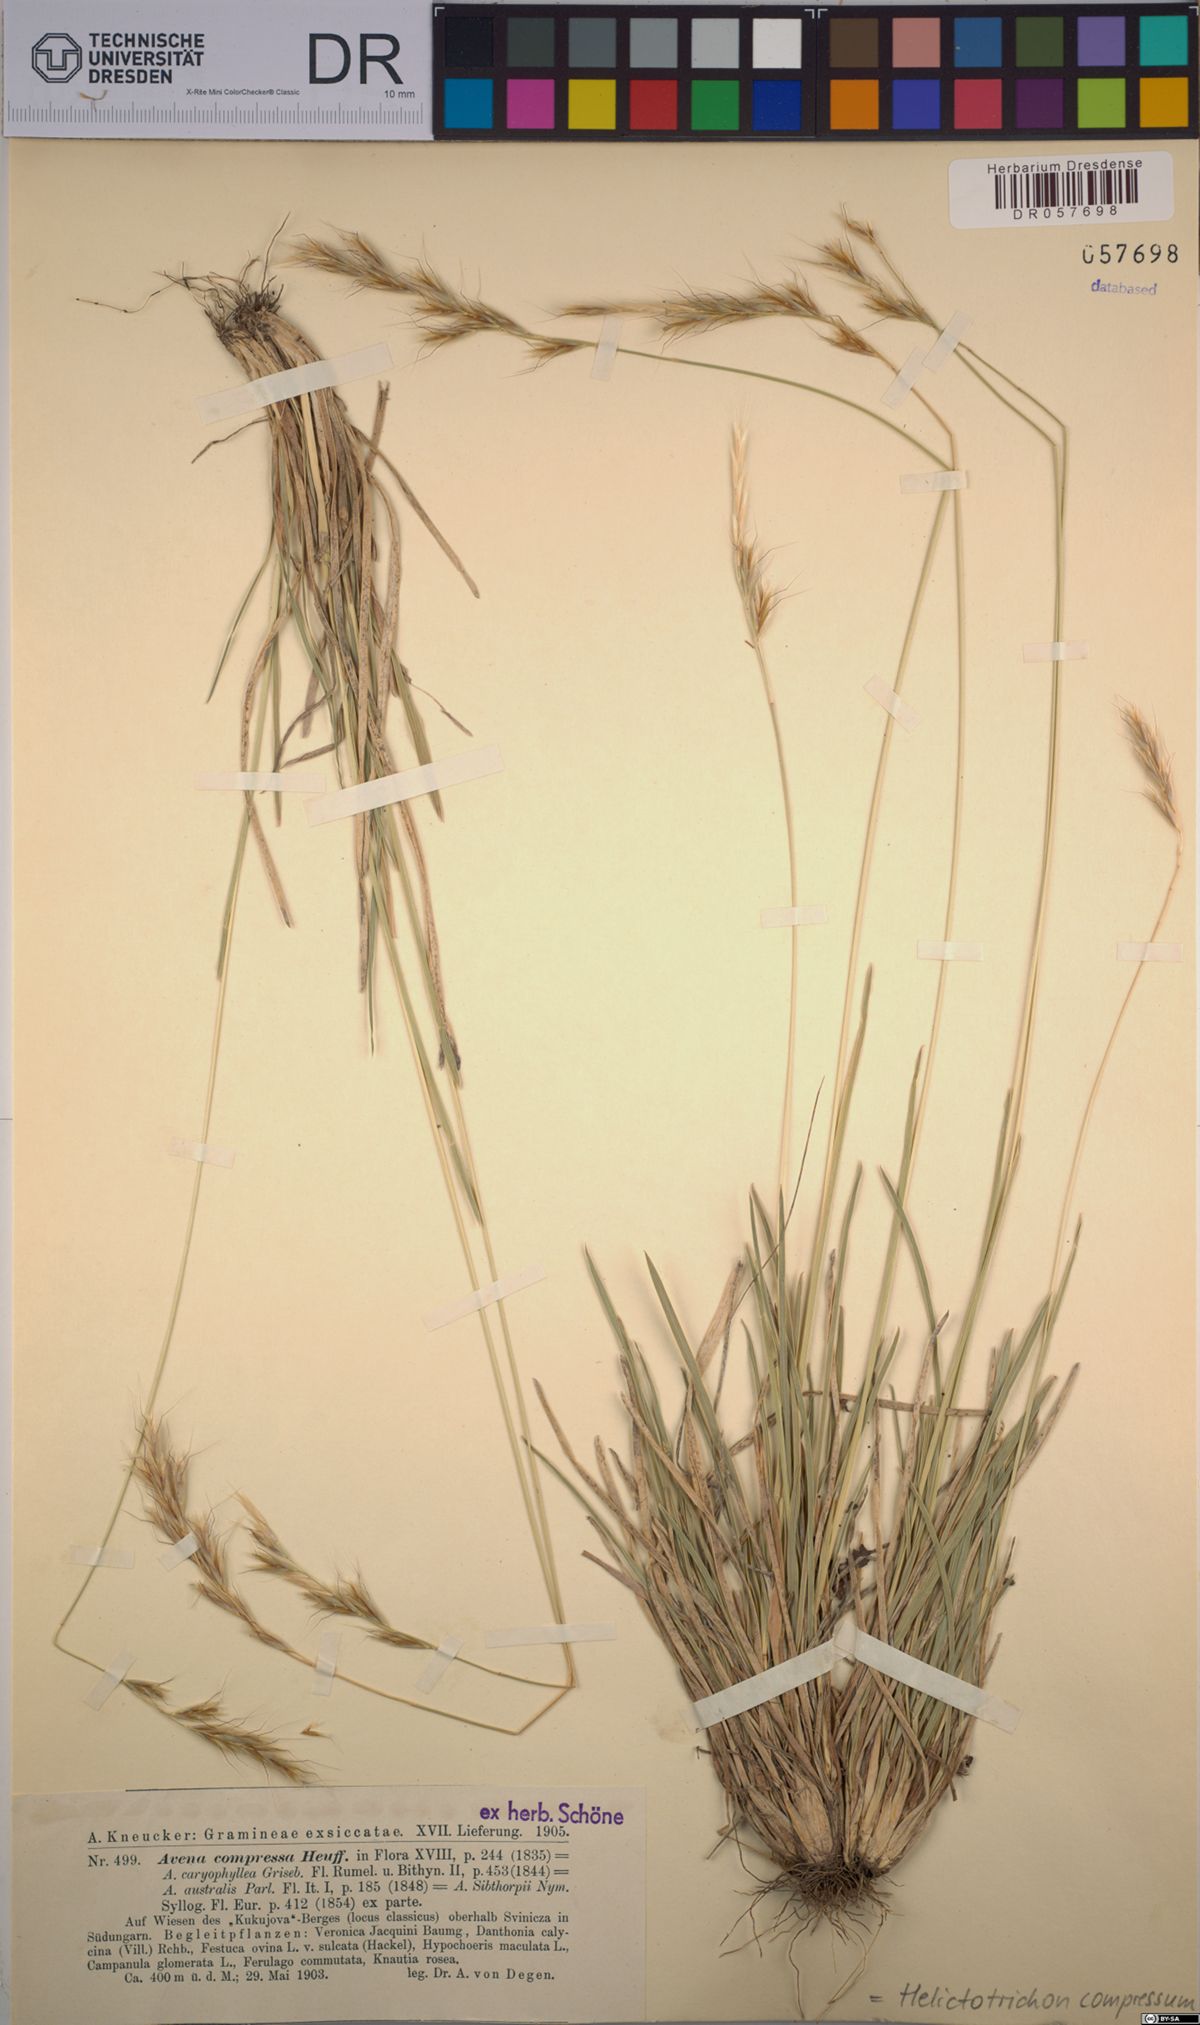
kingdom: Plantae
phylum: Tracheophyta
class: Liliopsida
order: Poales
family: Poaceae
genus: Helictochloa
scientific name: Helictochloa compressa
